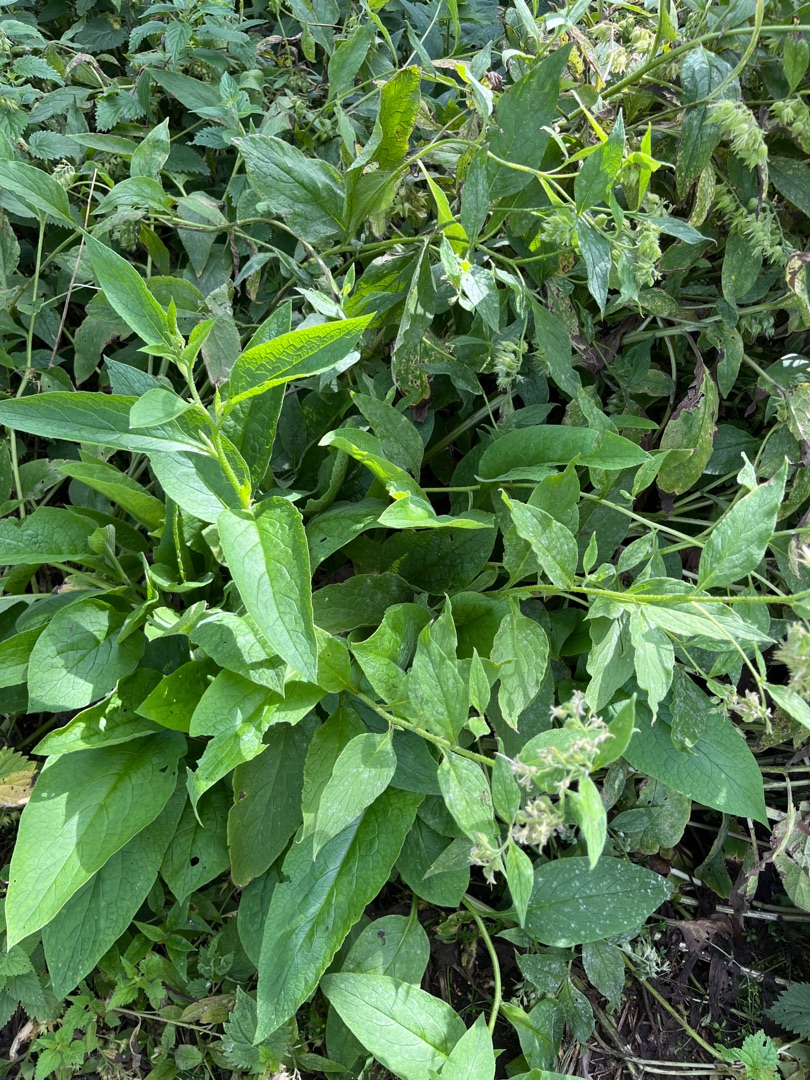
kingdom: Plantae
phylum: Tracheophyta
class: Magnoliopsida
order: Boraginales
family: Boraginaceae
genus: Symphytum
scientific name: Symphytum uplandicum
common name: Foder-kulsukker
